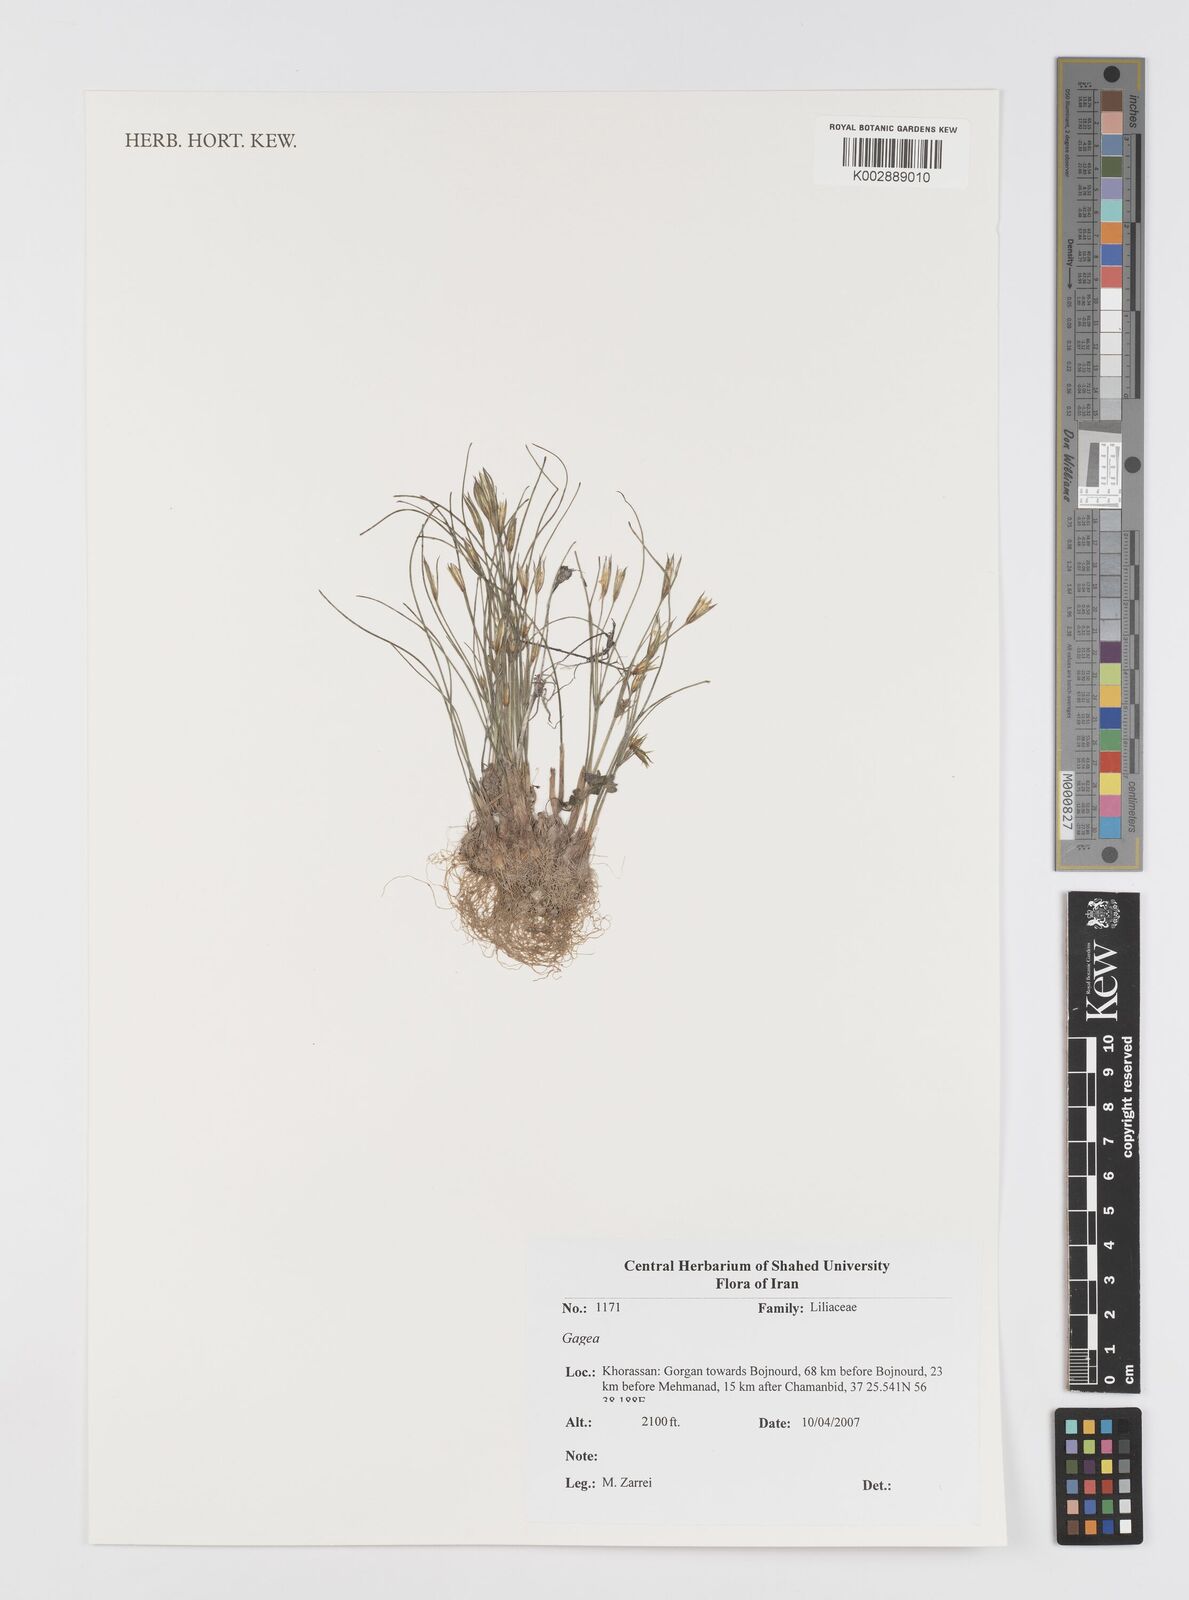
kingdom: Plantae
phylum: Tracheophyta
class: Liliopsida
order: Liliales
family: Liliaceae
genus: Gagea
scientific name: Gagea
